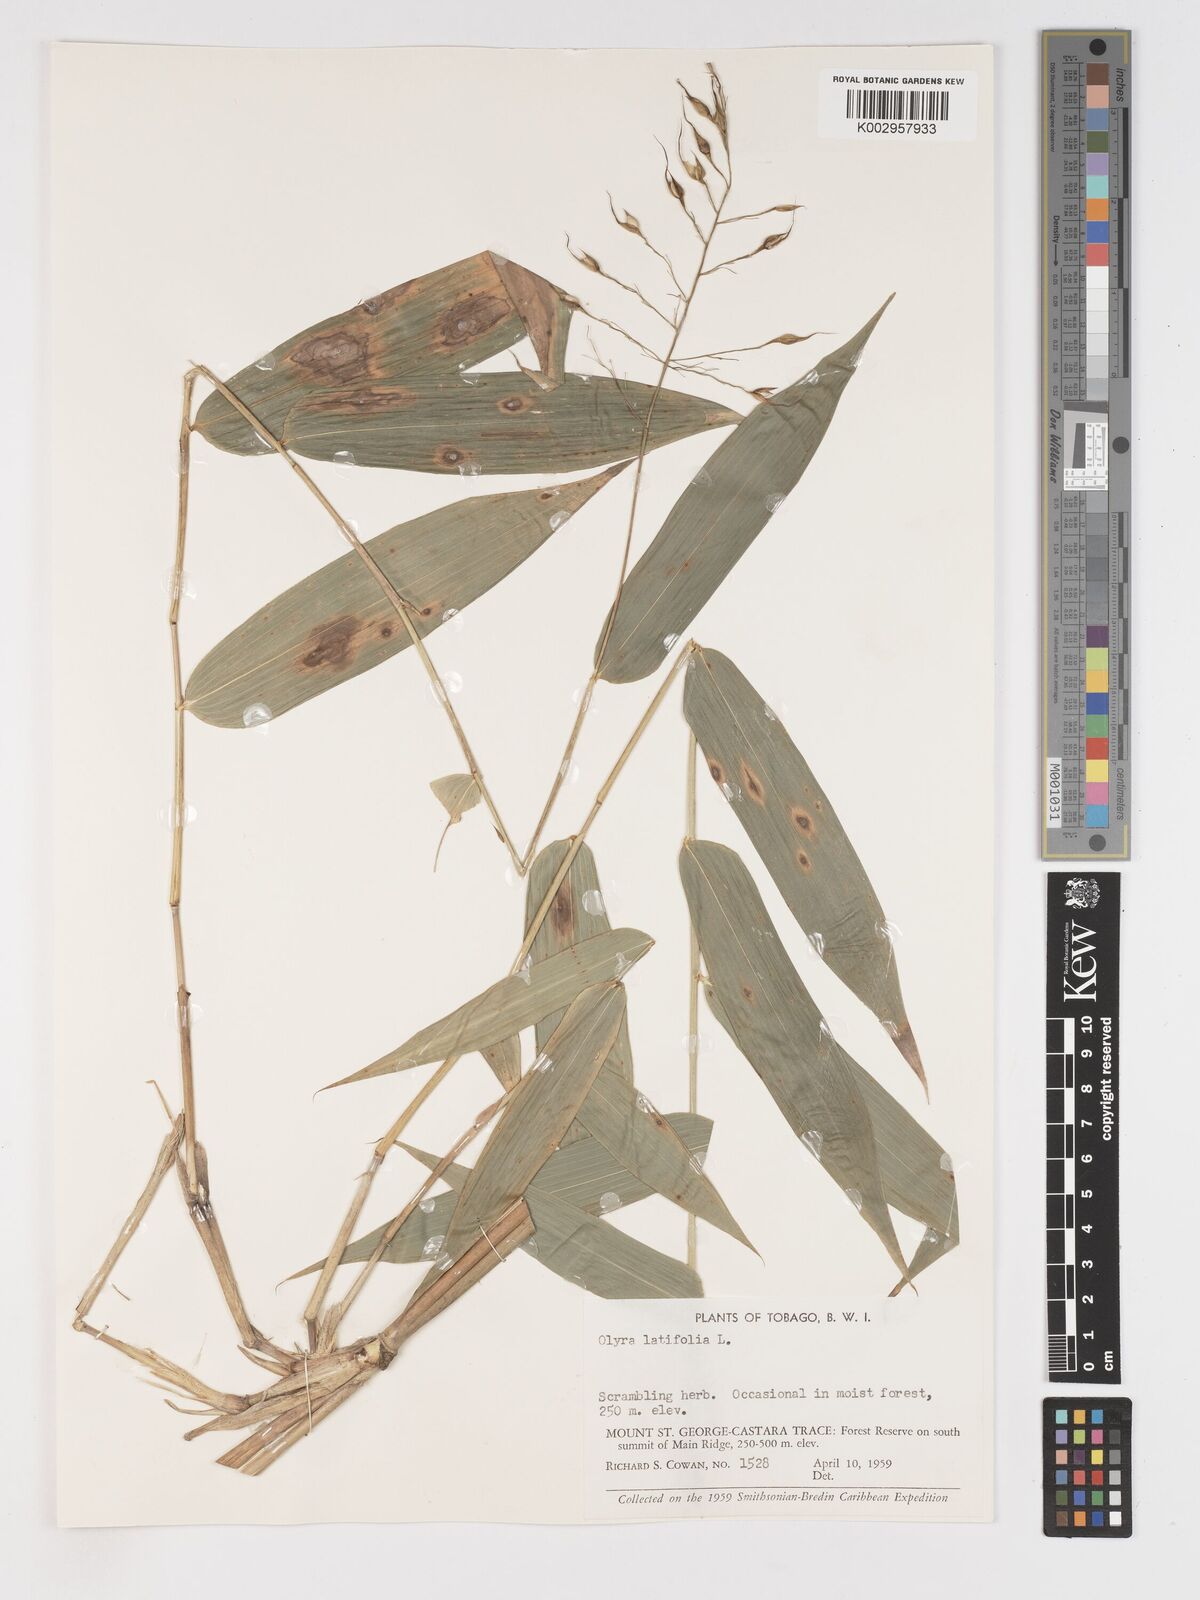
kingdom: Plantae
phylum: Tracheophyta
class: Liliopsida
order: Poales
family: Poaceae
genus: Olyra
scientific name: Olyra latifolia
